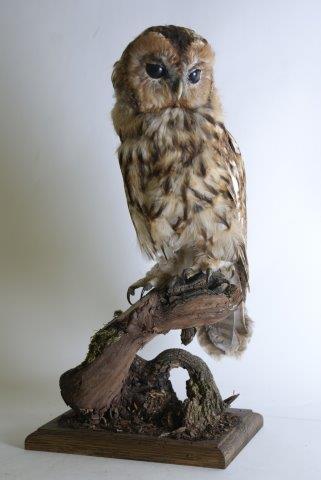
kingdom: Animalia
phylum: Chordata
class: Aves
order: Strigiformes
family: Strigidae
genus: Strix
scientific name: Strix aluco
